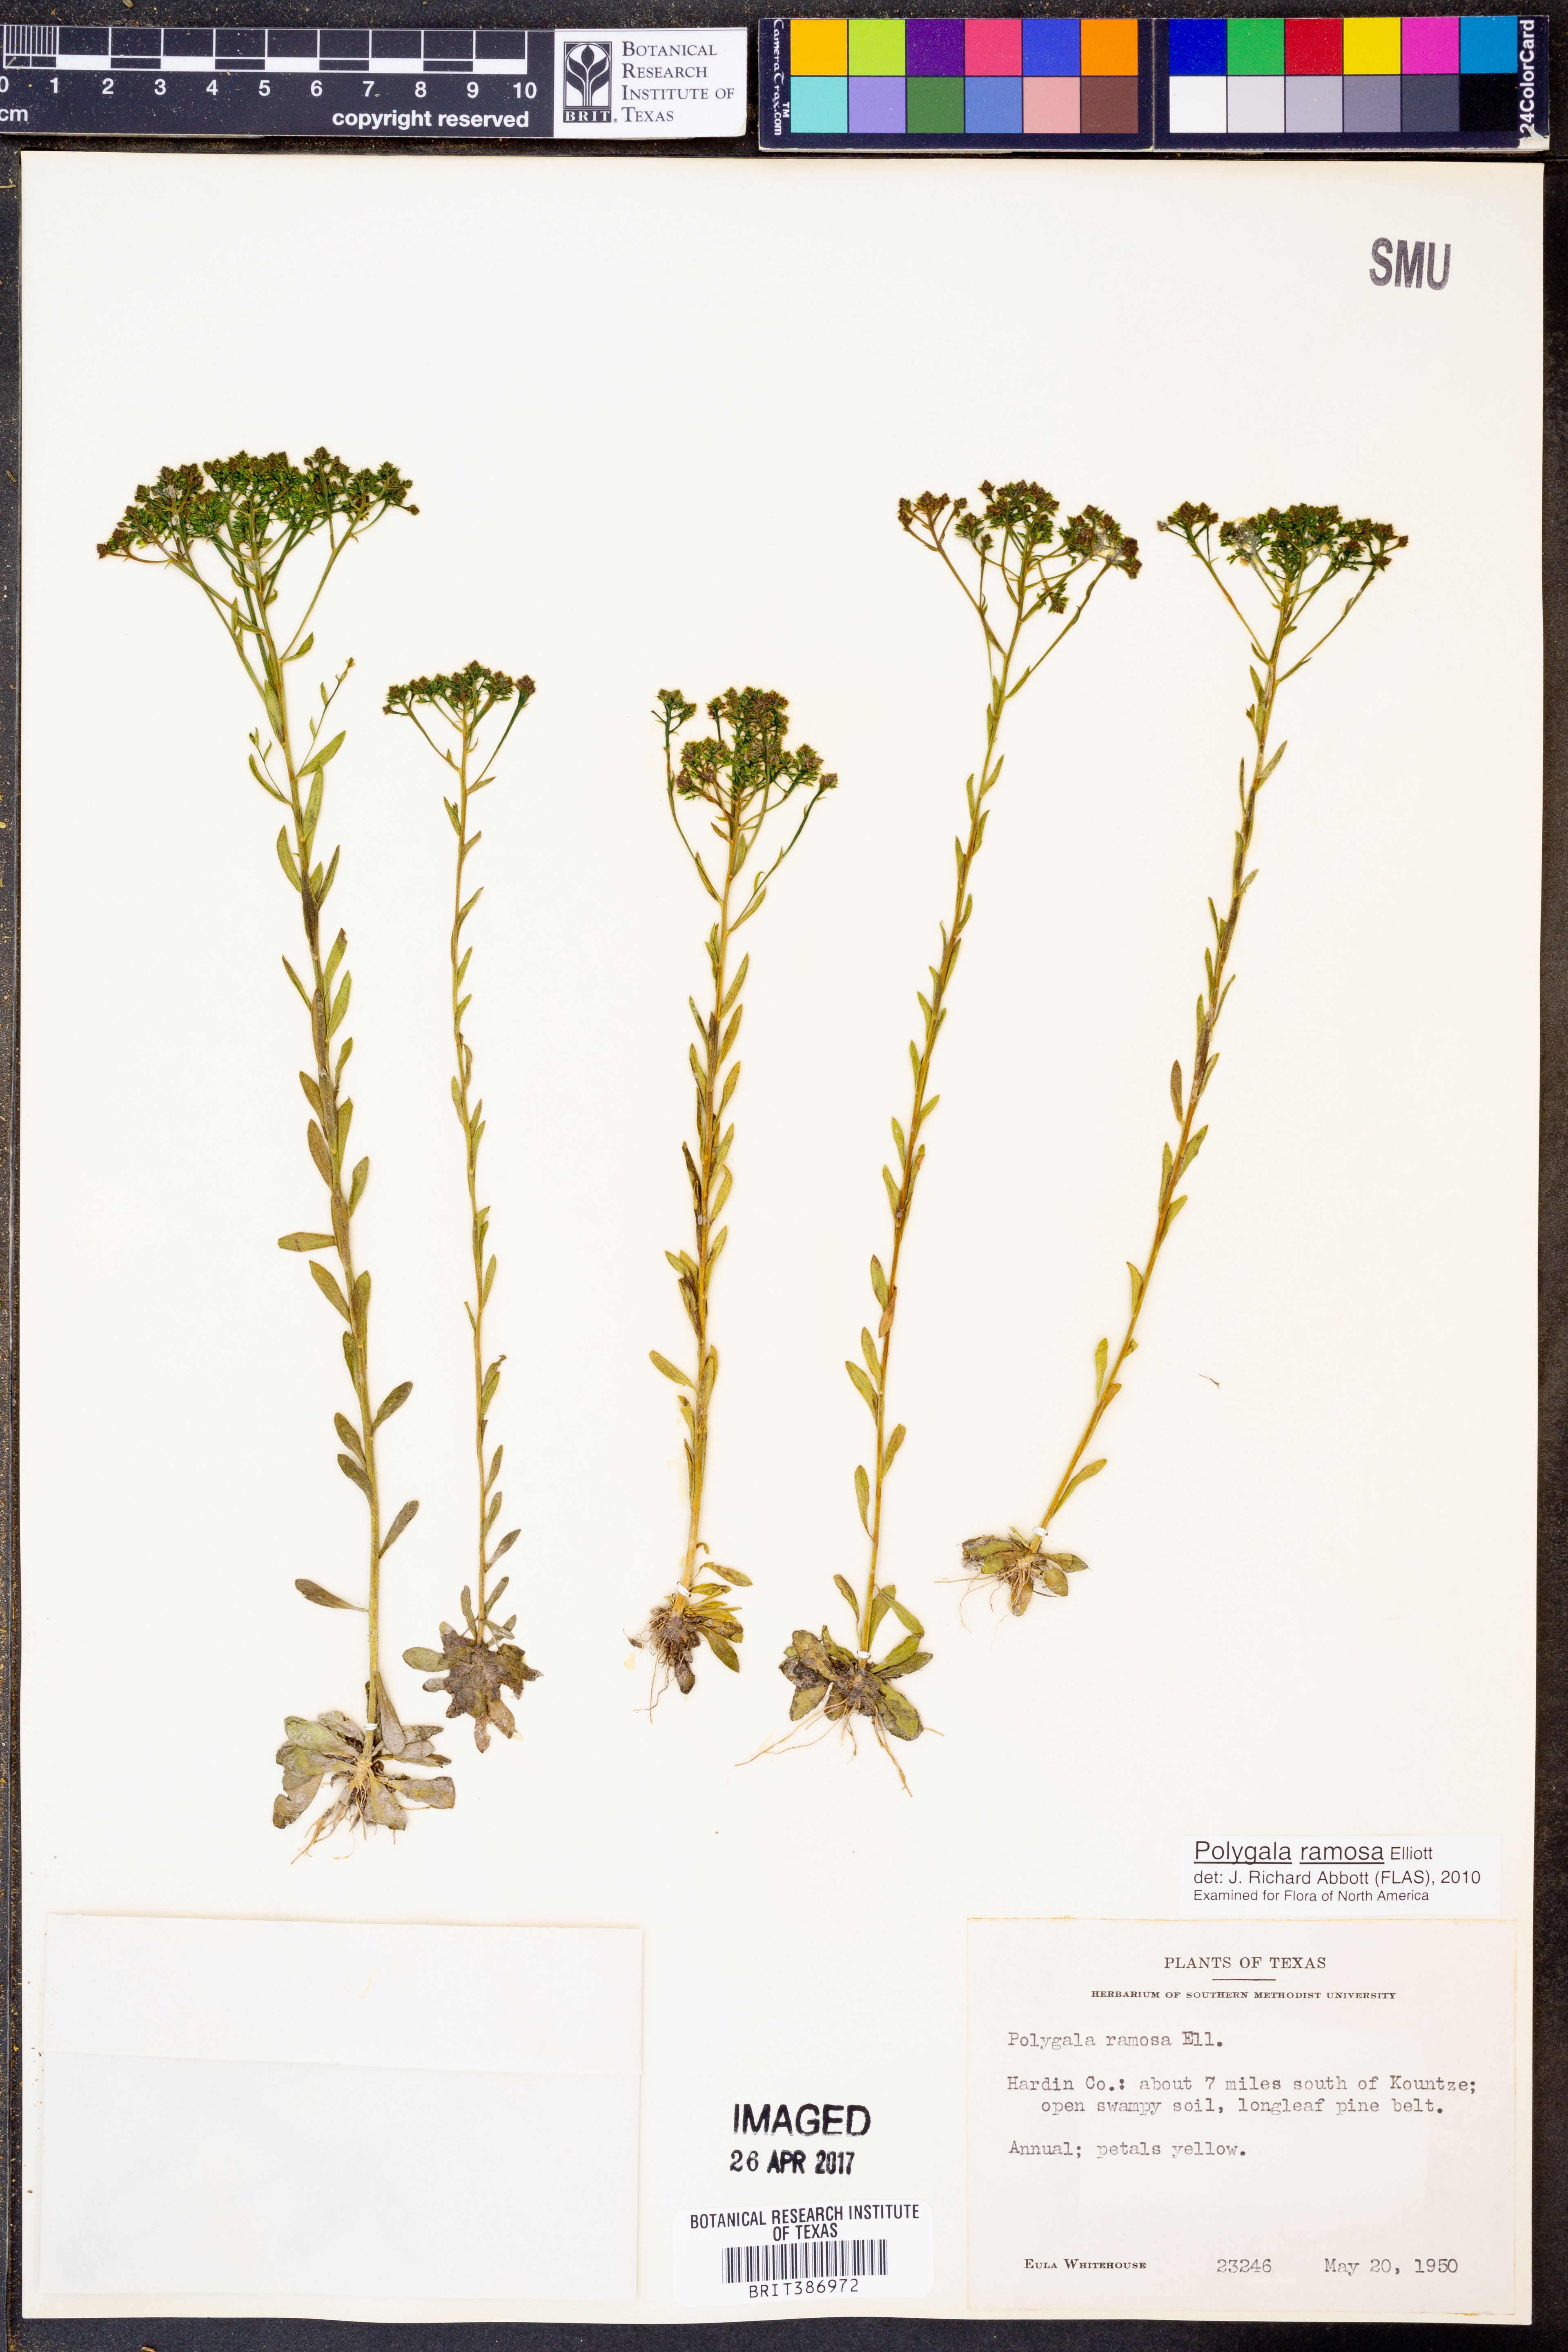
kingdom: Plantae
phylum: Tracheophyta
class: Magnoliopsida
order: Fabales
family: Polygalaceae
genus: Polygala
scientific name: Polygala ramosa
